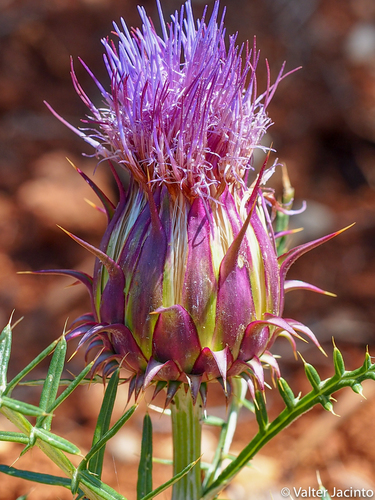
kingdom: Plantae
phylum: Tracheophyta
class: Magnoliopsida
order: Asterales
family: Asteraceae
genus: Cynara
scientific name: Cynara humilis
